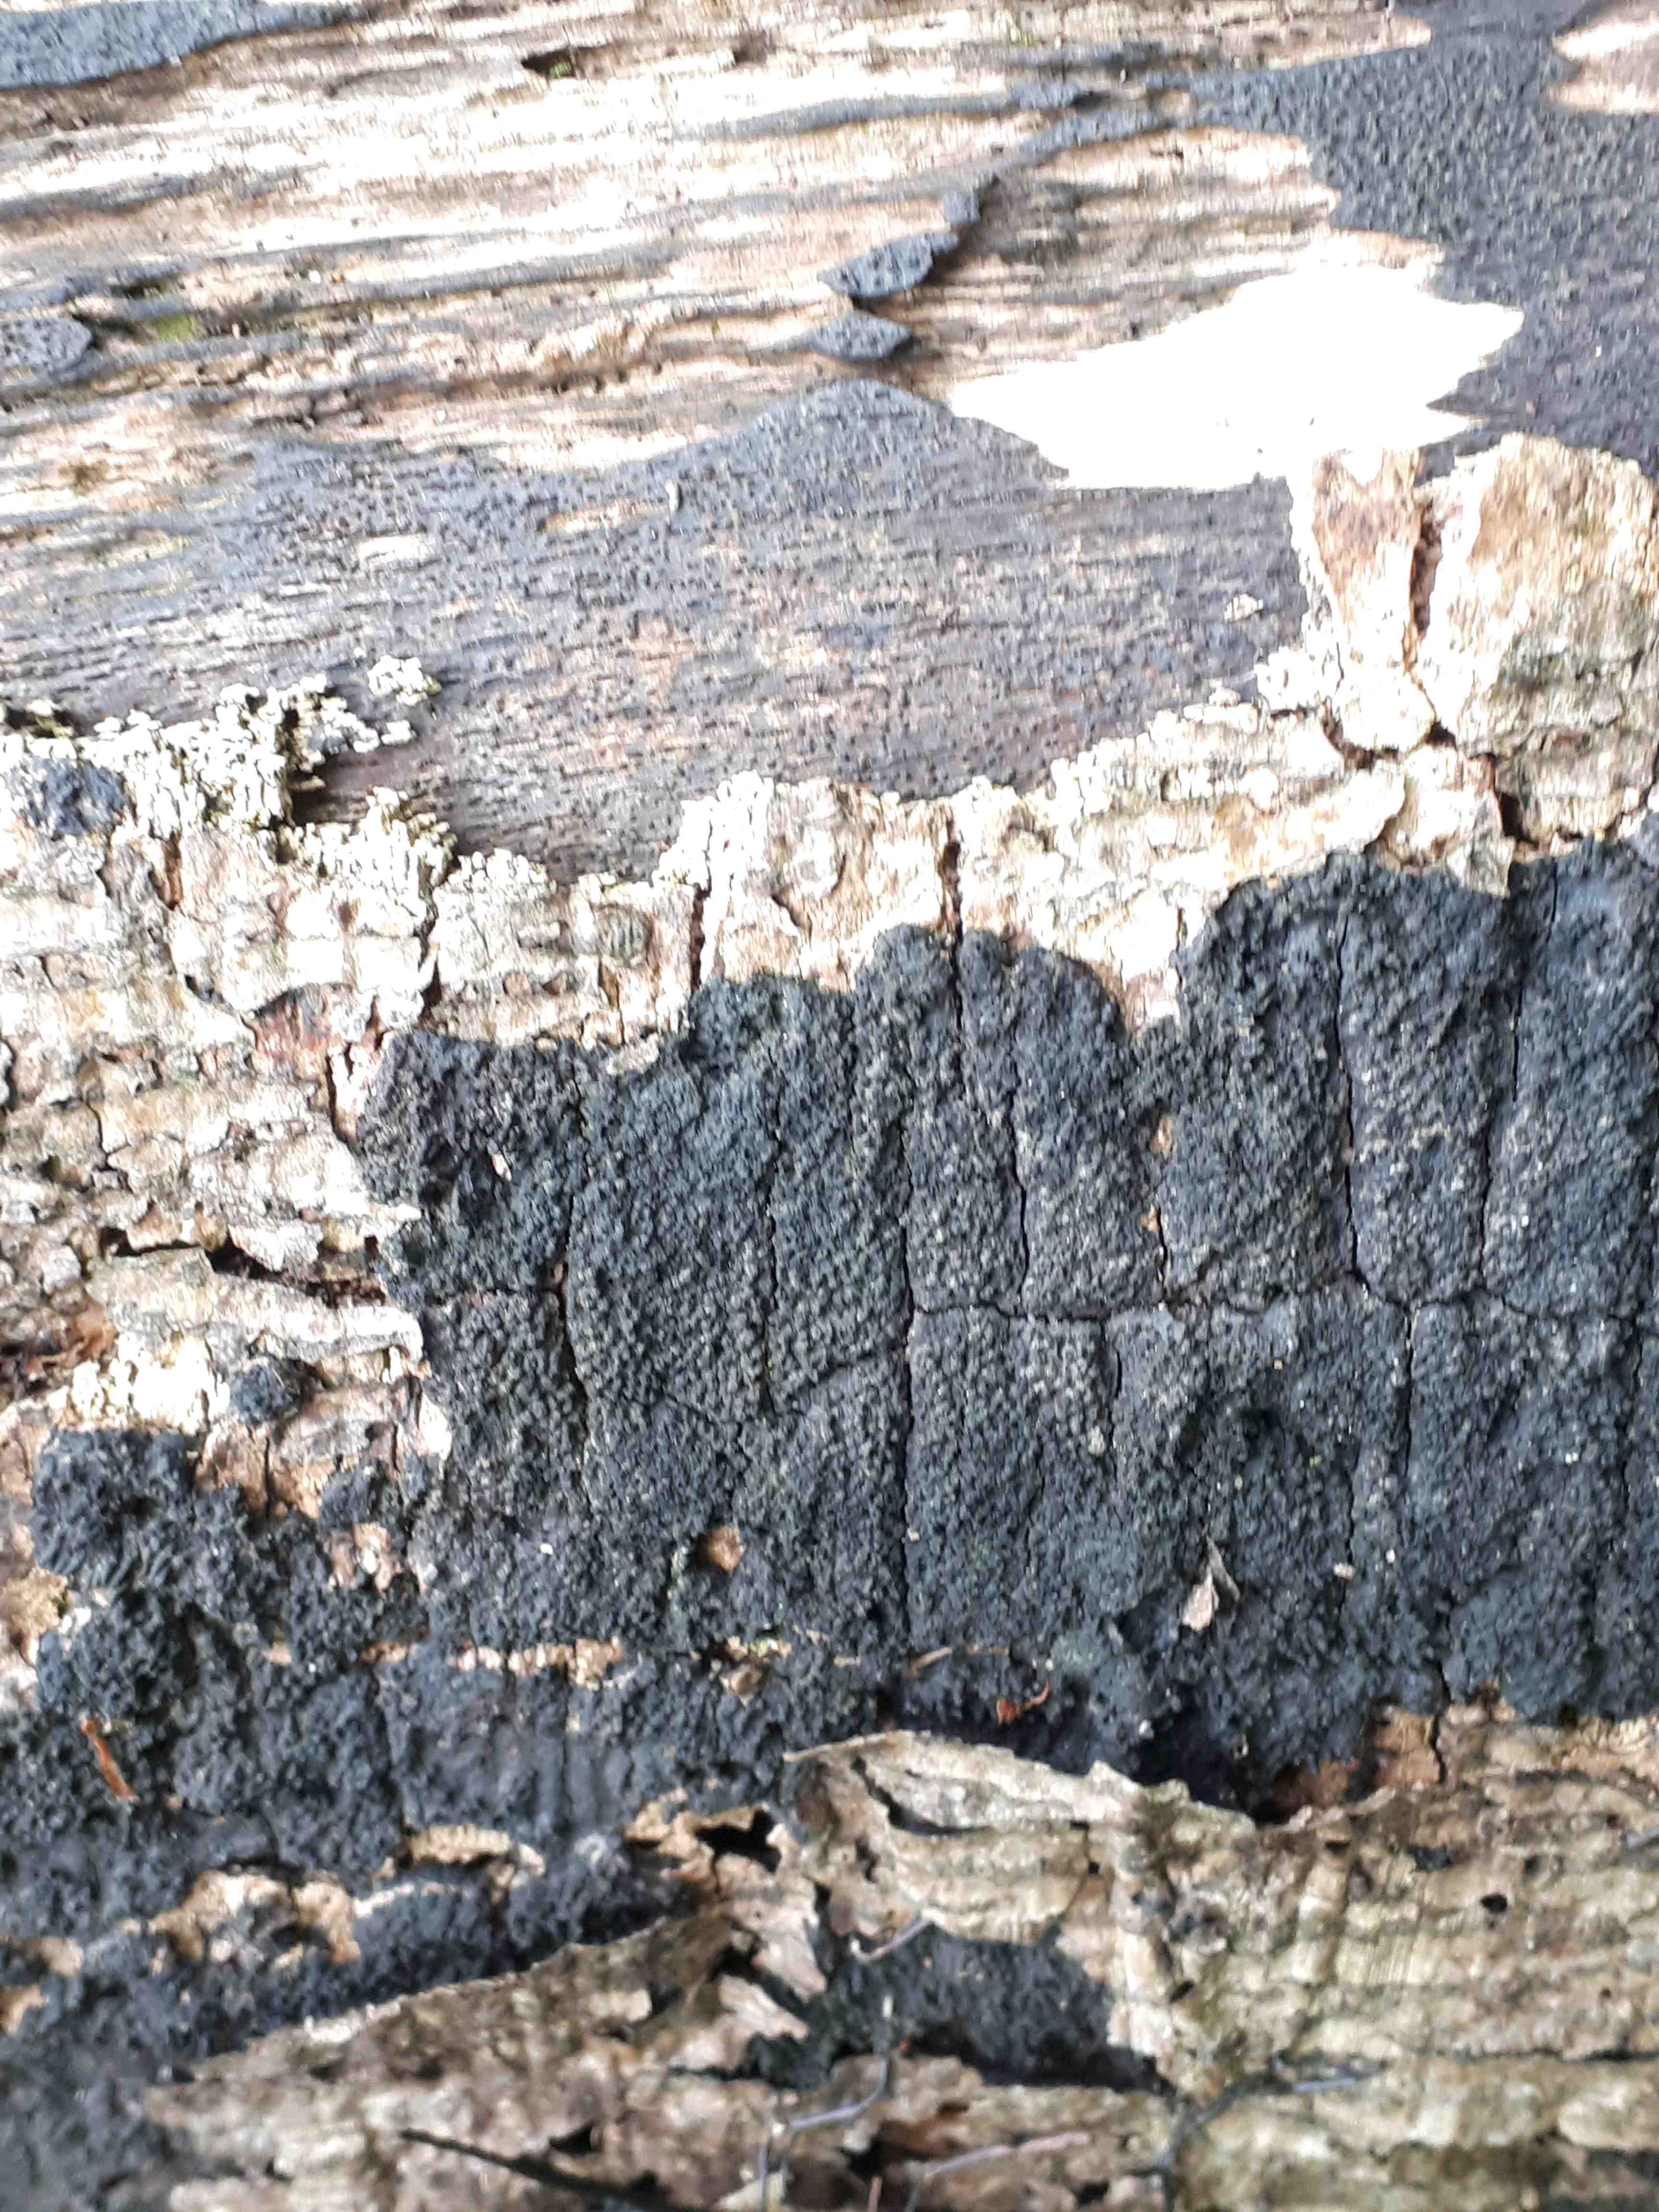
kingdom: Fungi
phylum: Ascomycota
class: Sordariomycetes
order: Xylariales
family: Diatrypaceae
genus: Eutypa
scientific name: Eutypa spinosa
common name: grov kulskorpe
